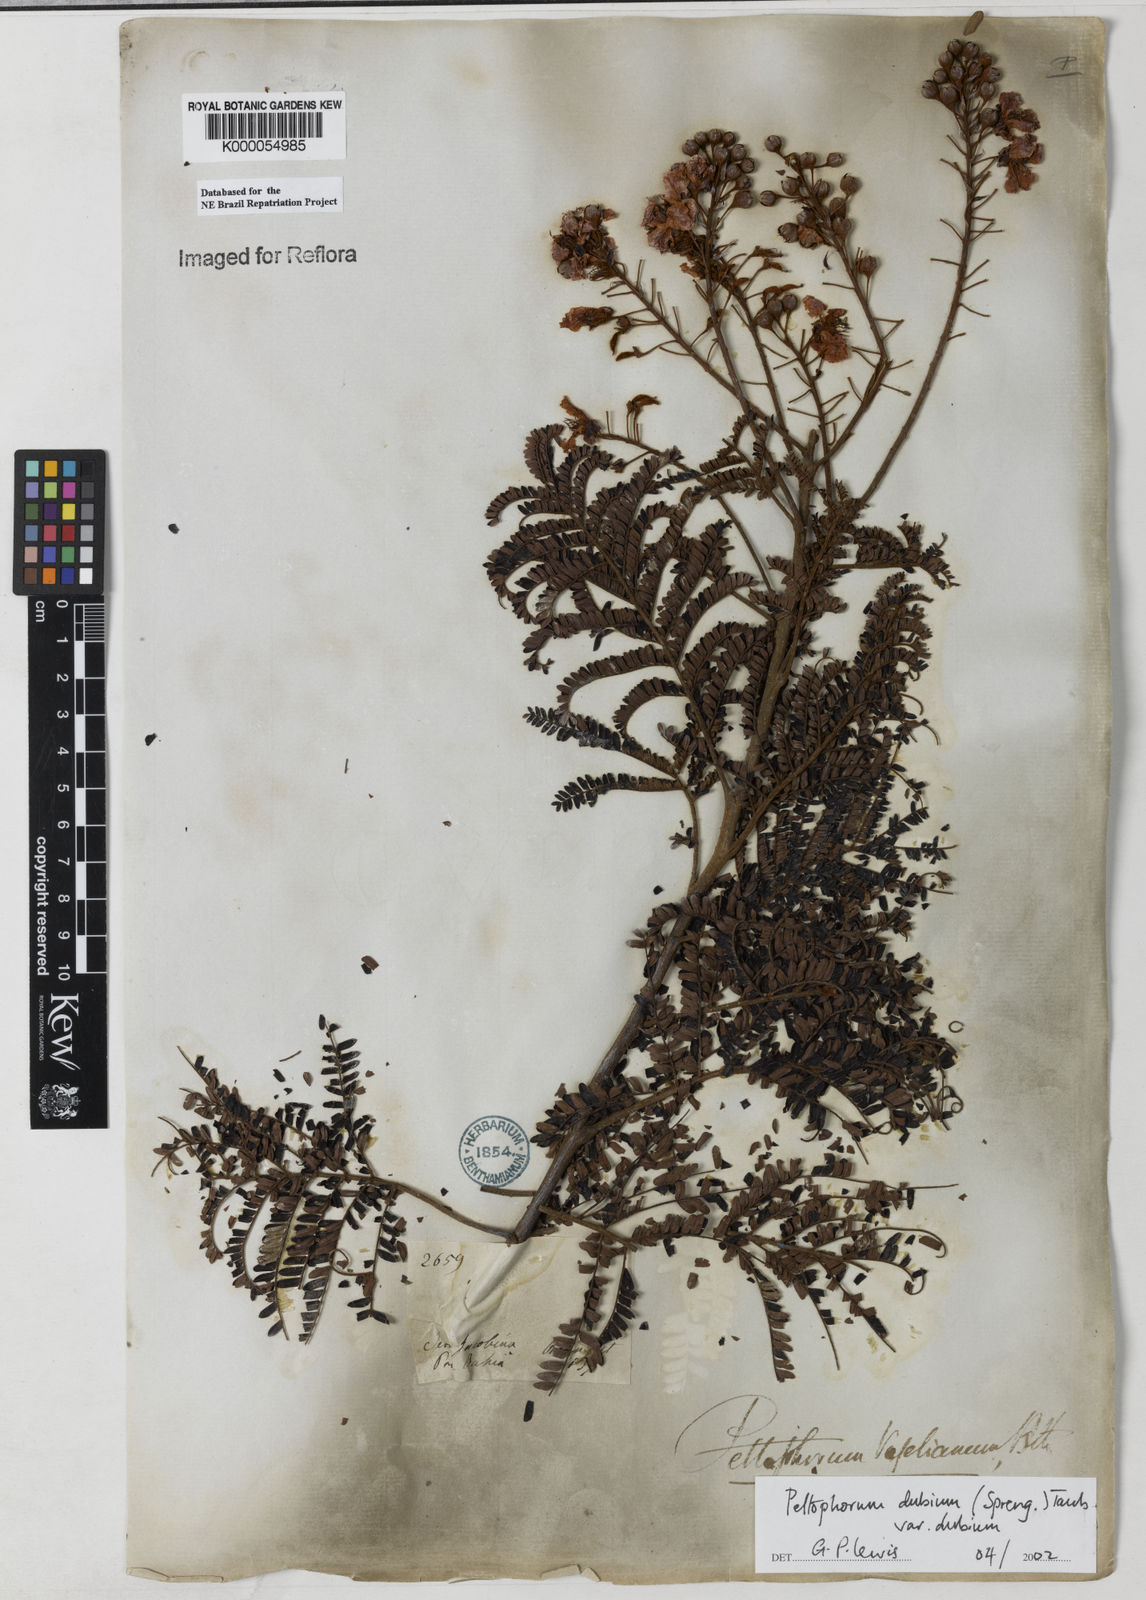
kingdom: Plantae
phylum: Tracheophyta
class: Magnoliopsida
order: Fabales
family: Fabaceae
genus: Peltophorum
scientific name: Peltophorum dubium
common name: Horsebush
